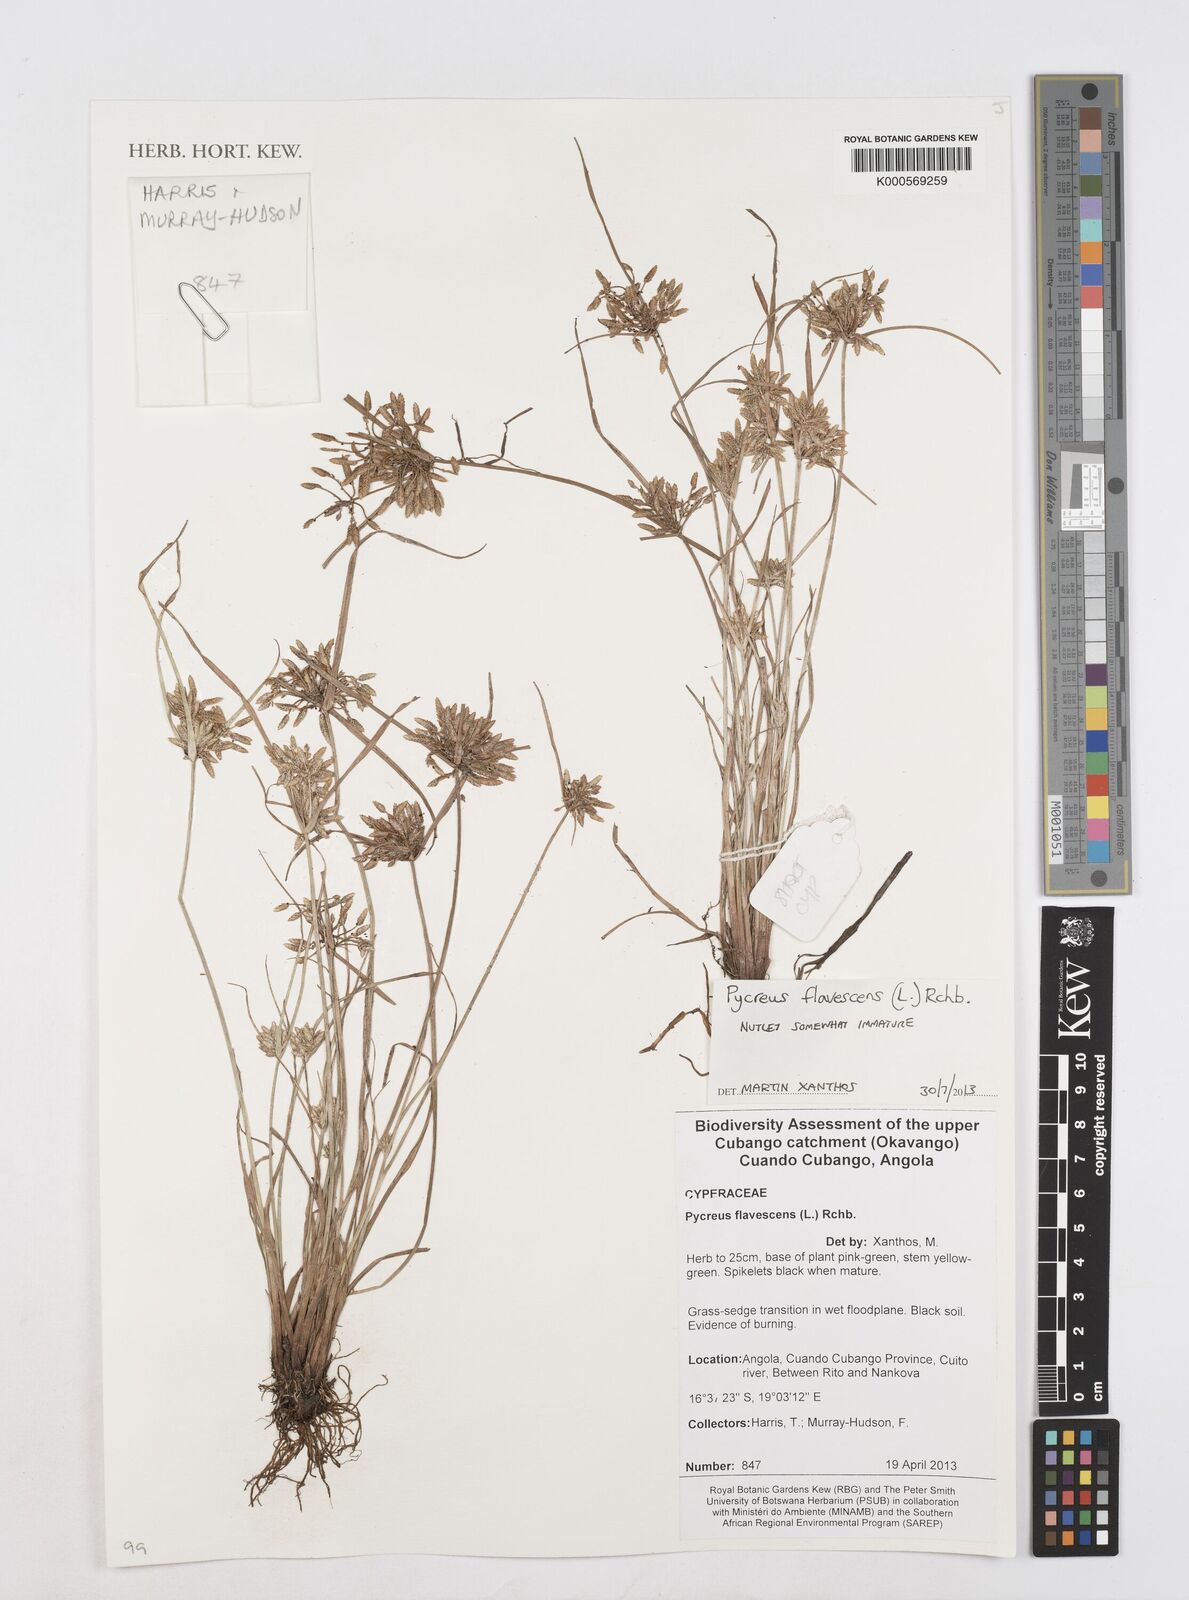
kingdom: Plantae
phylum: Tracheophyta
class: Liliopsida
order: Poales
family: Cyperaceae
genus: Cyperus
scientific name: Cyperus flavescens
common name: Yellow galingale
